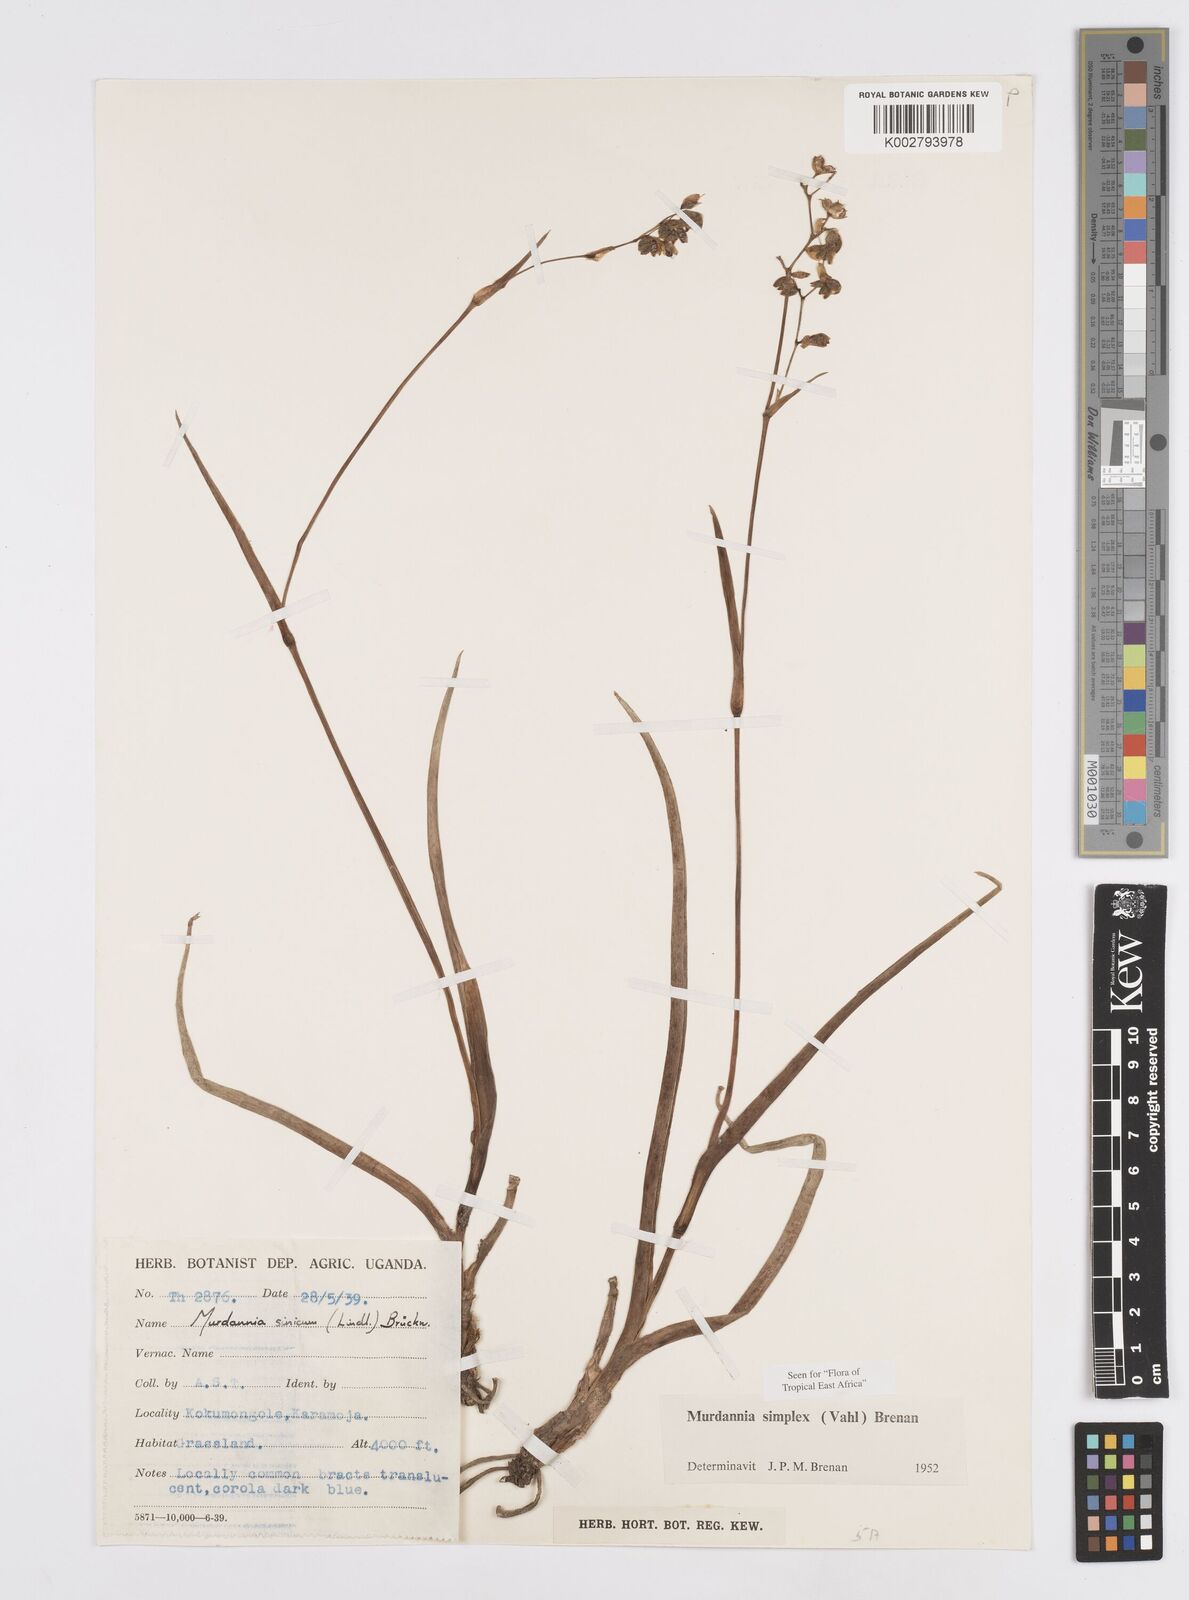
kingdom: Plantae
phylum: Tracheophyta
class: Liliopsida
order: Commelinales
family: Commelinaceae
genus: Murdannia
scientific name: Murdannia simplex
